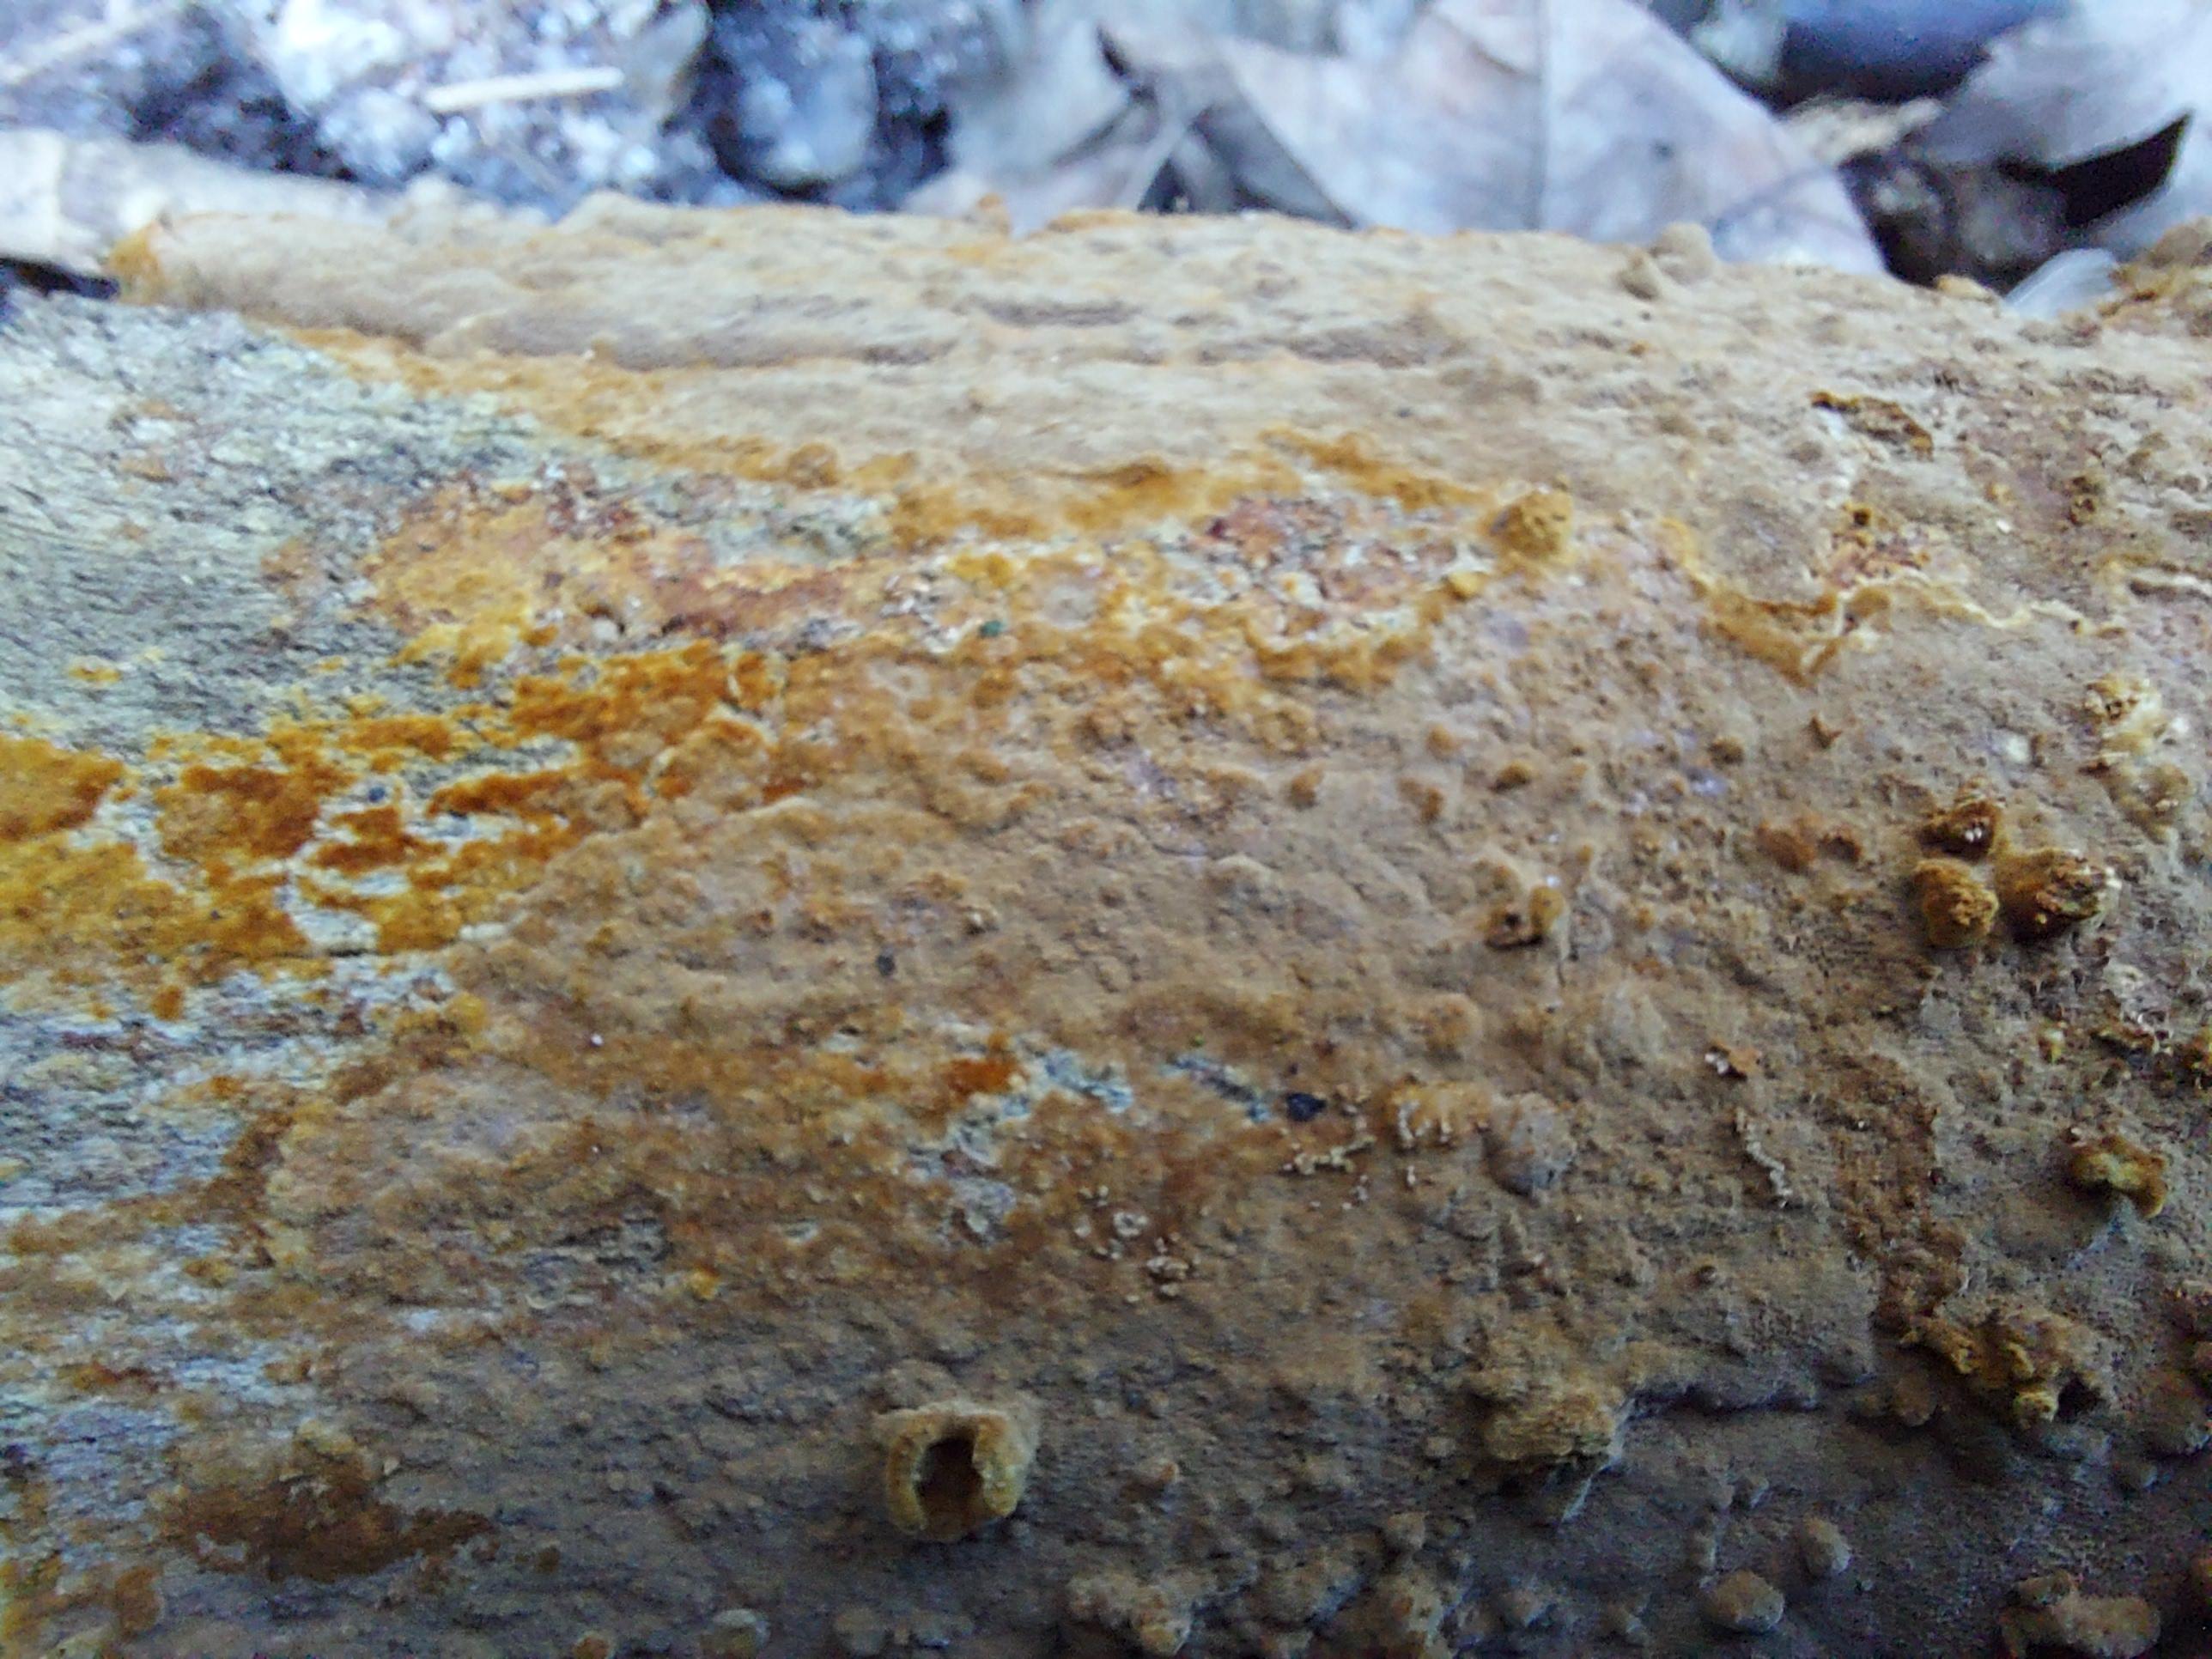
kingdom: Fungi
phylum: Basidiomycota
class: Agaricomycetes
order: Hymenochaetales
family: Hymenochaetaceae
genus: Fuscoporia
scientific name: Fuscoporia
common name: Ildporesvamp
